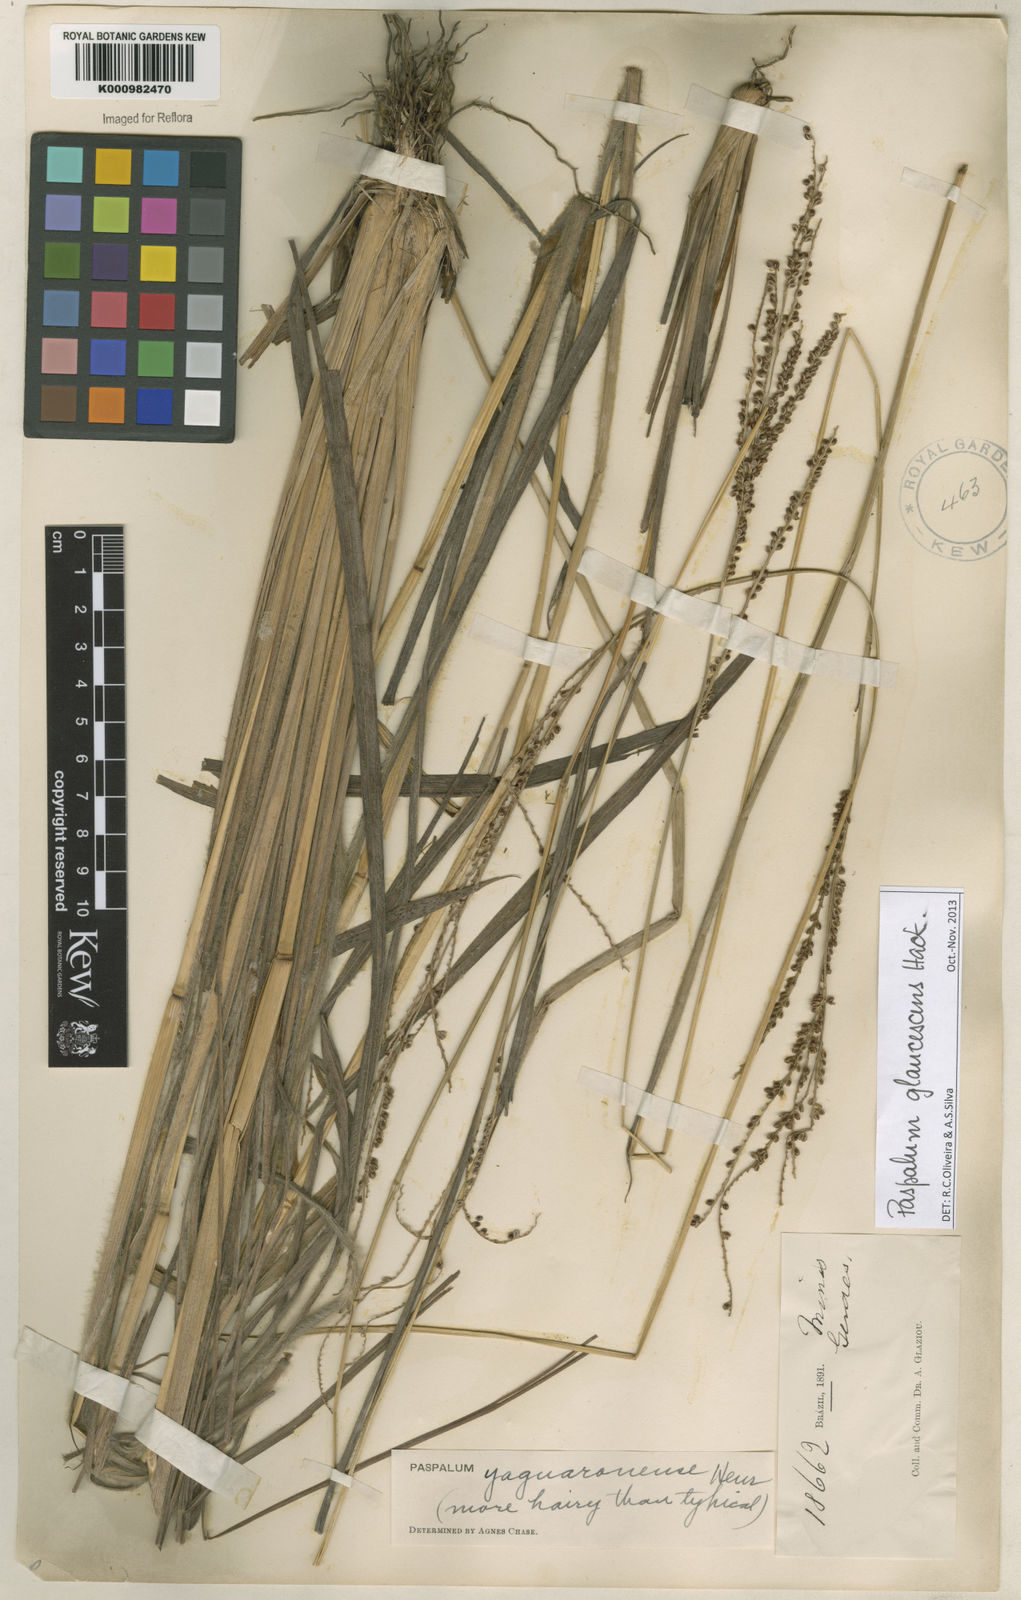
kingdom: Plantae
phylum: Tracheophyta
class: Liliopsida
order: Poales
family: Poaceae
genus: Paspalum
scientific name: Paspalum glaucescens
